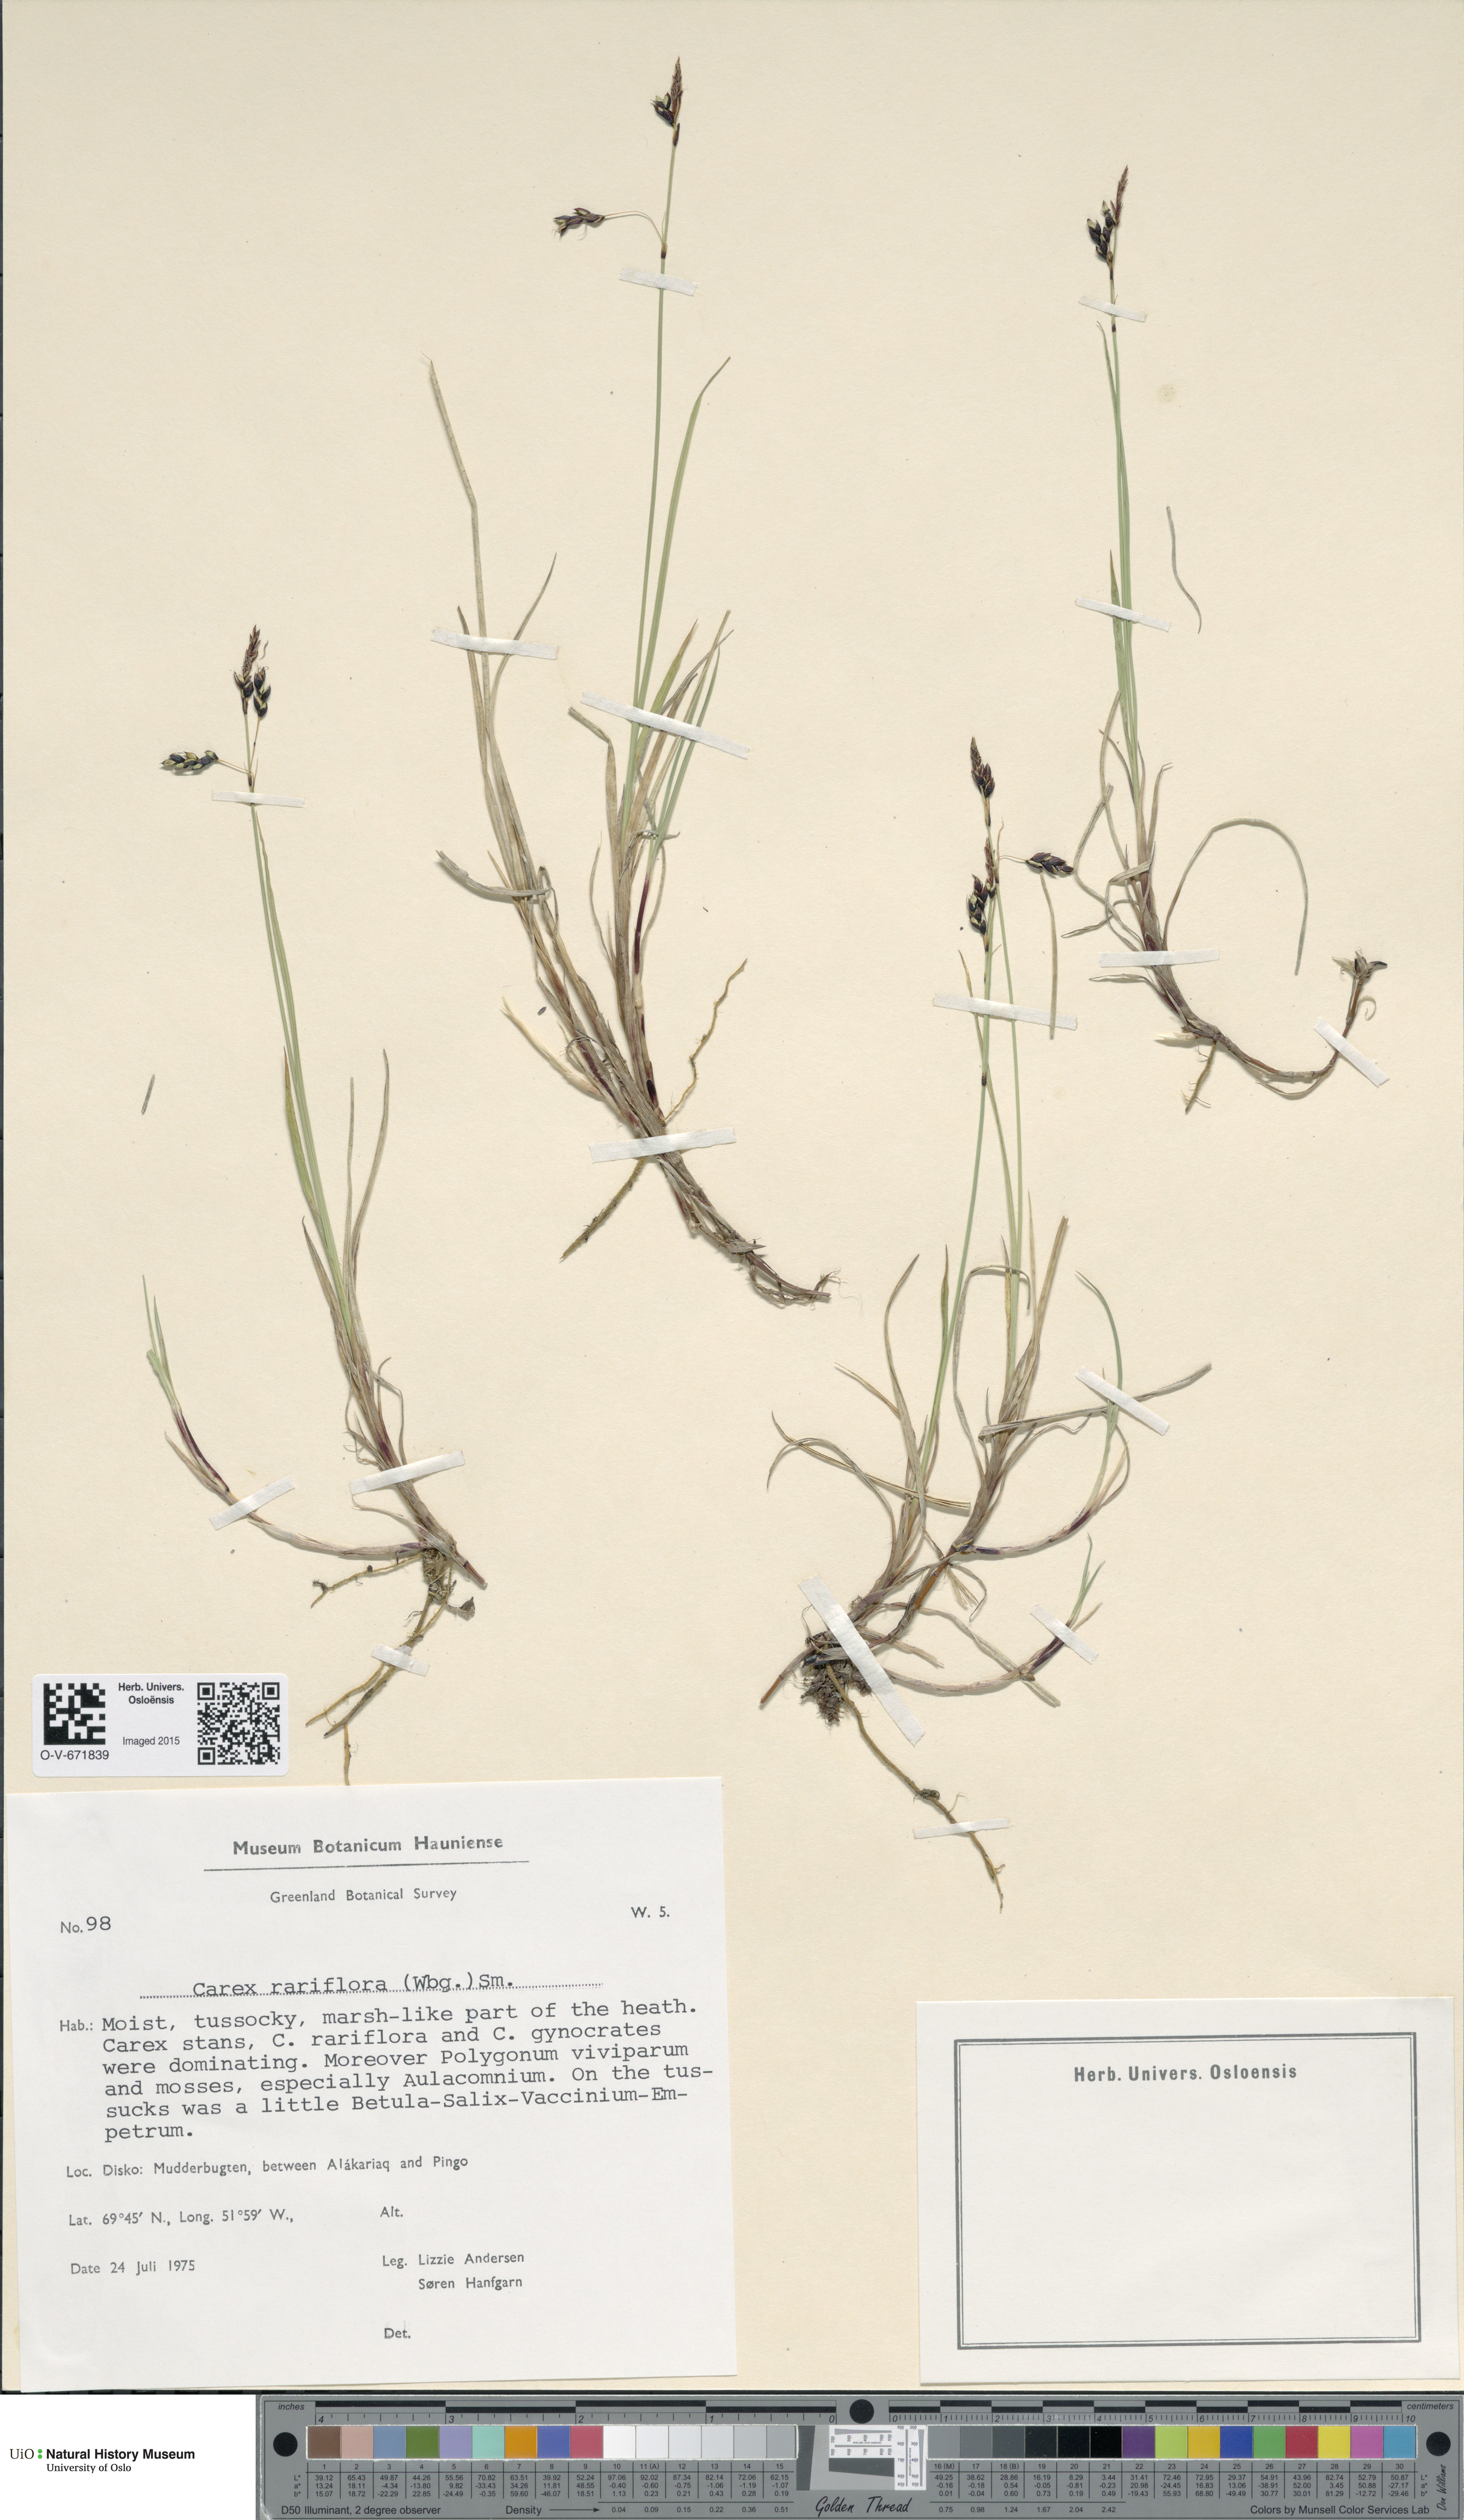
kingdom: Plantae
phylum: Tracheophyta
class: Liliopsida
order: Poales
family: Cyperaceae
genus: Carex
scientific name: Carex rariflora
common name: Loose-flowered alpine sedge
